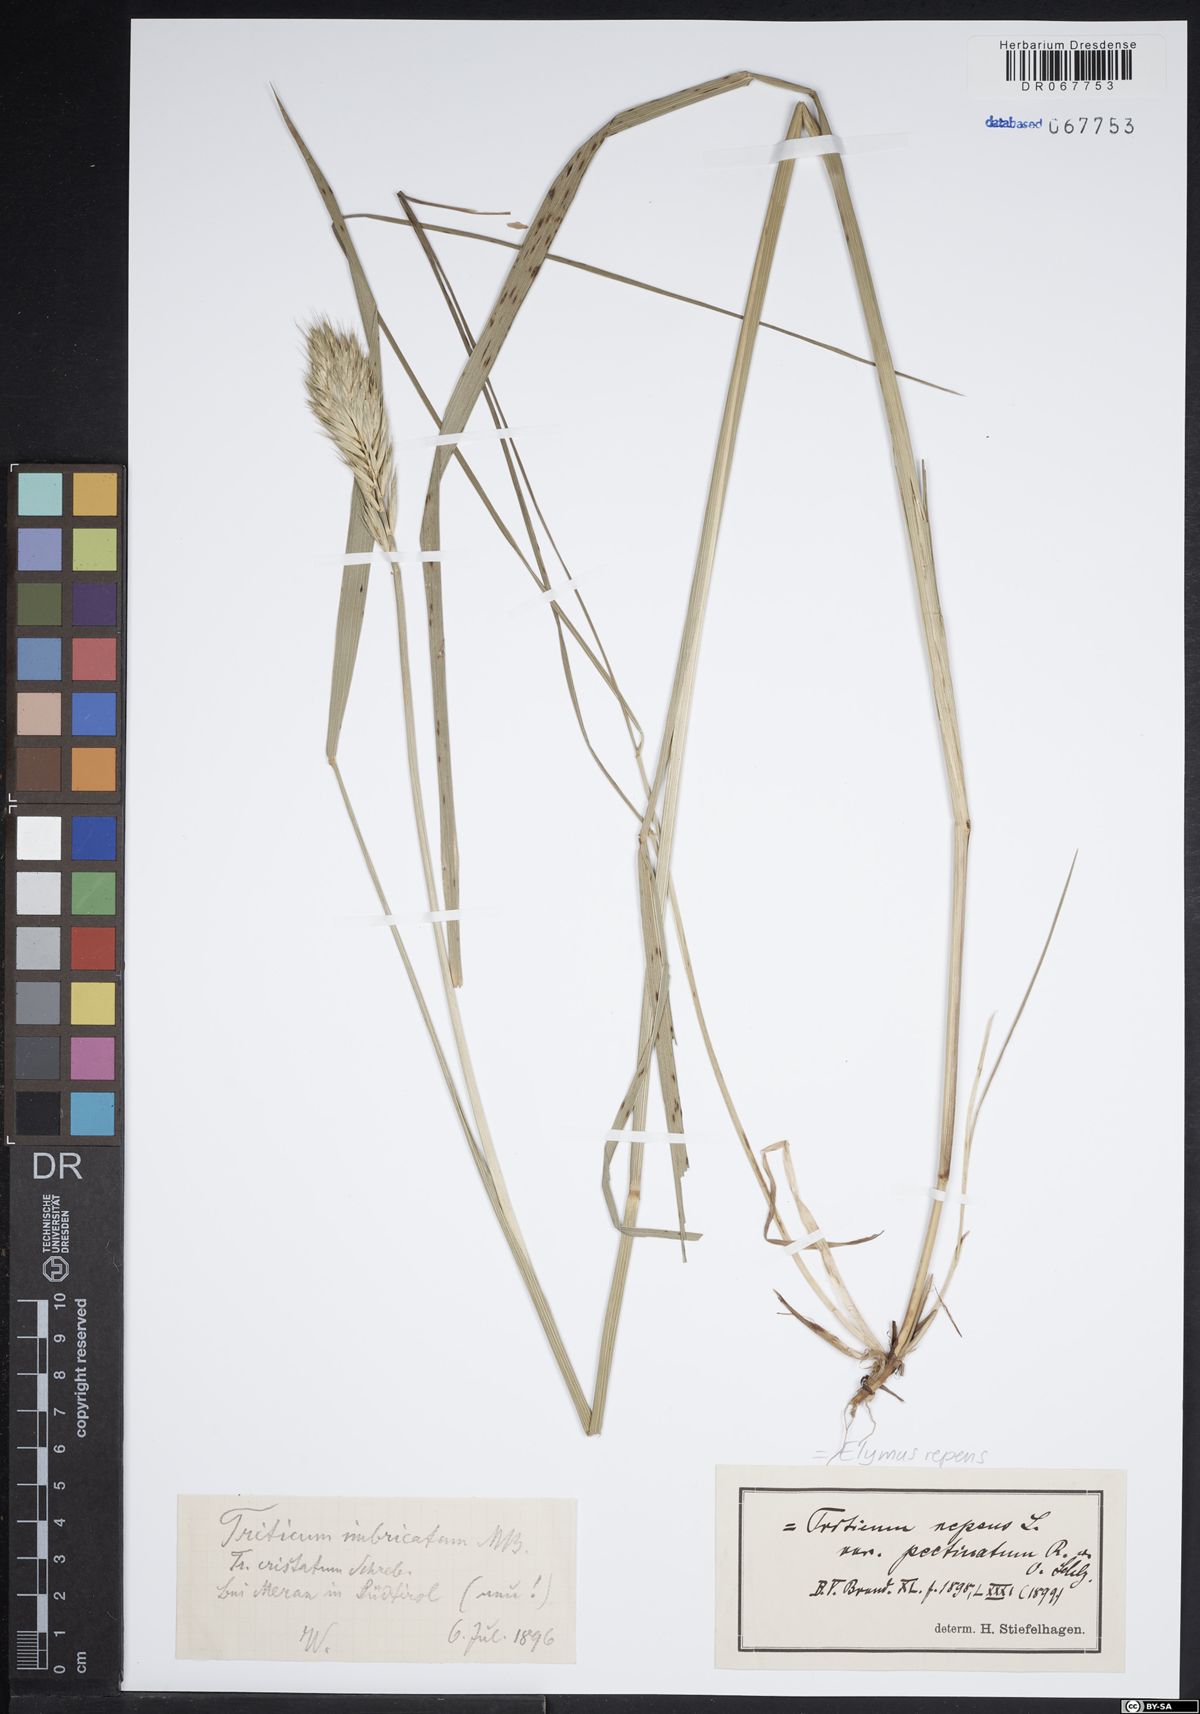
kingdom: Plantae
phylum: Tracheophyta
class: Liliopsida
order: Poales
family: Poaceae
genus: Elymus
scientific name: Elymus repens
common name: Quackgrass
